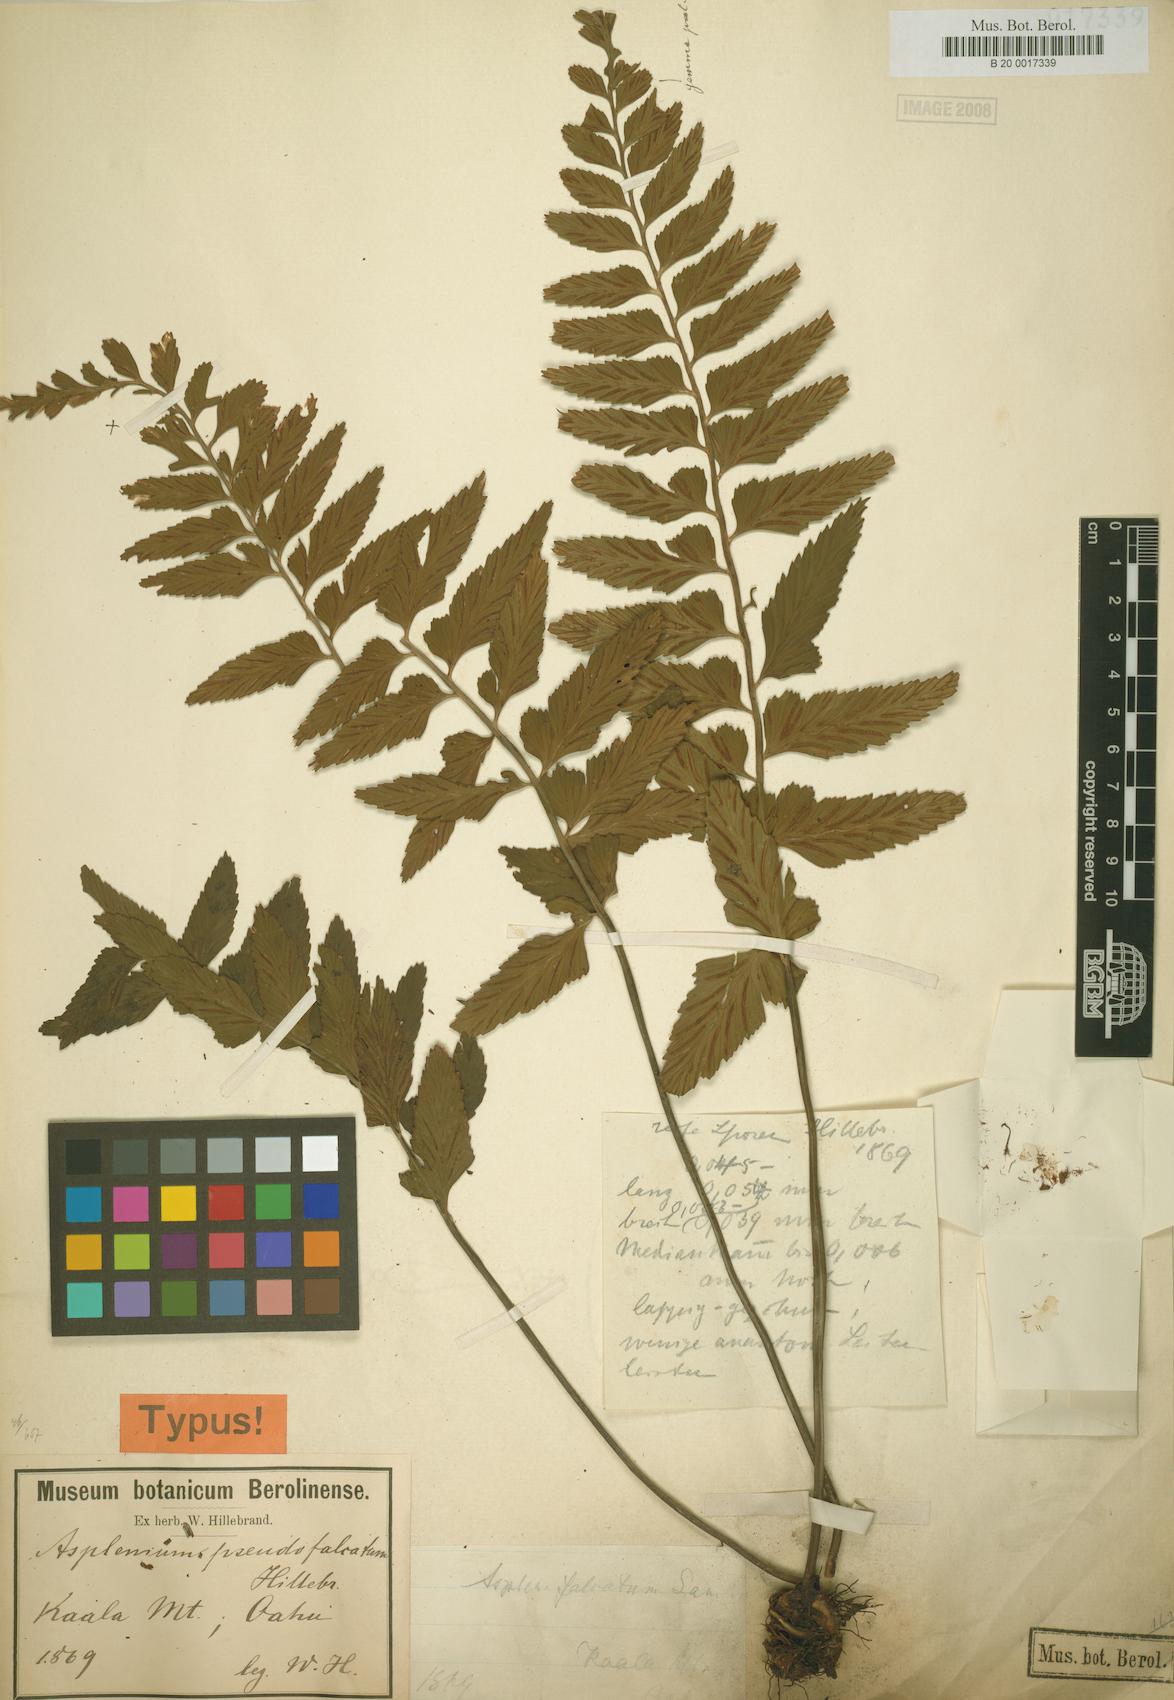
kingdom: Plantae
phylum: Tracheophyta
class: Polypodiopsida
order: Polypodiales
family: Aspleniaceae
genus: Asplenium
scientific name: Asplenium lobulatum
